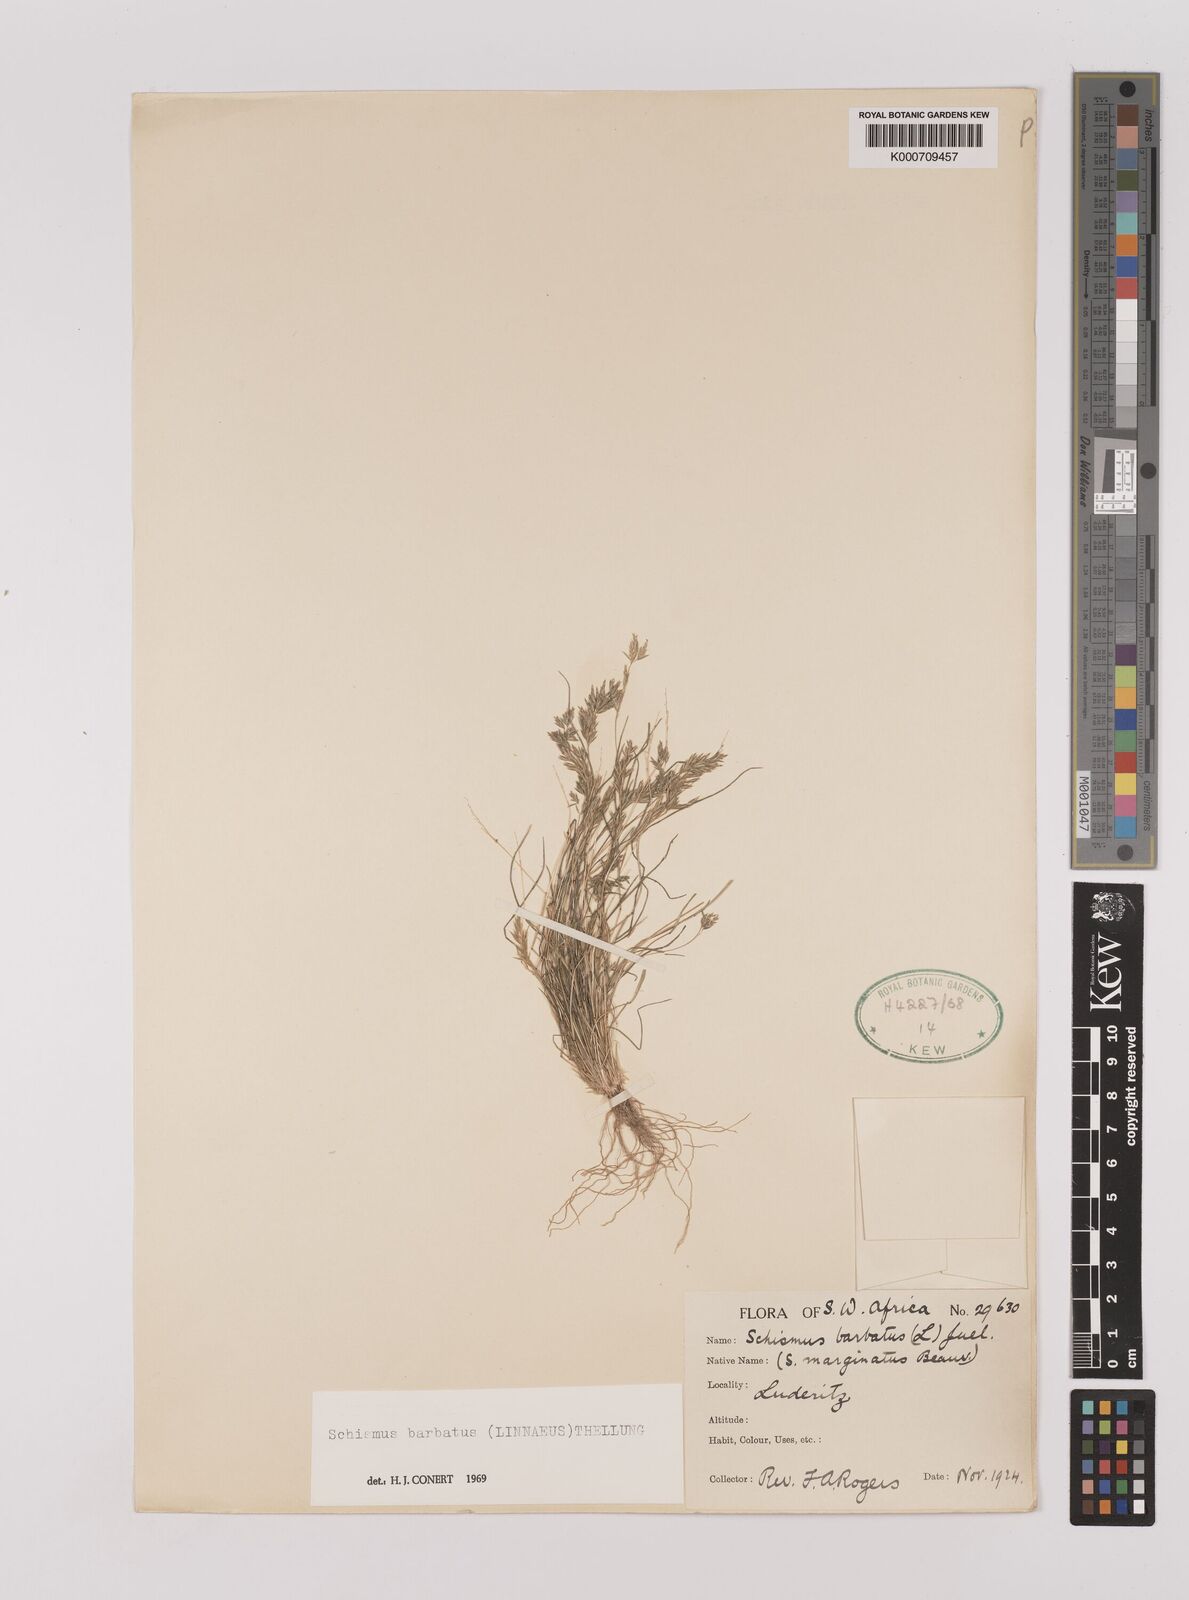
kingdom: Plantae
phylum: Tracheophyta
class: Liliopsida
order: Poales
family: Poaceae
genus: Schismus
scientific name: Schismus barbatus
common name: Kelch-grass
